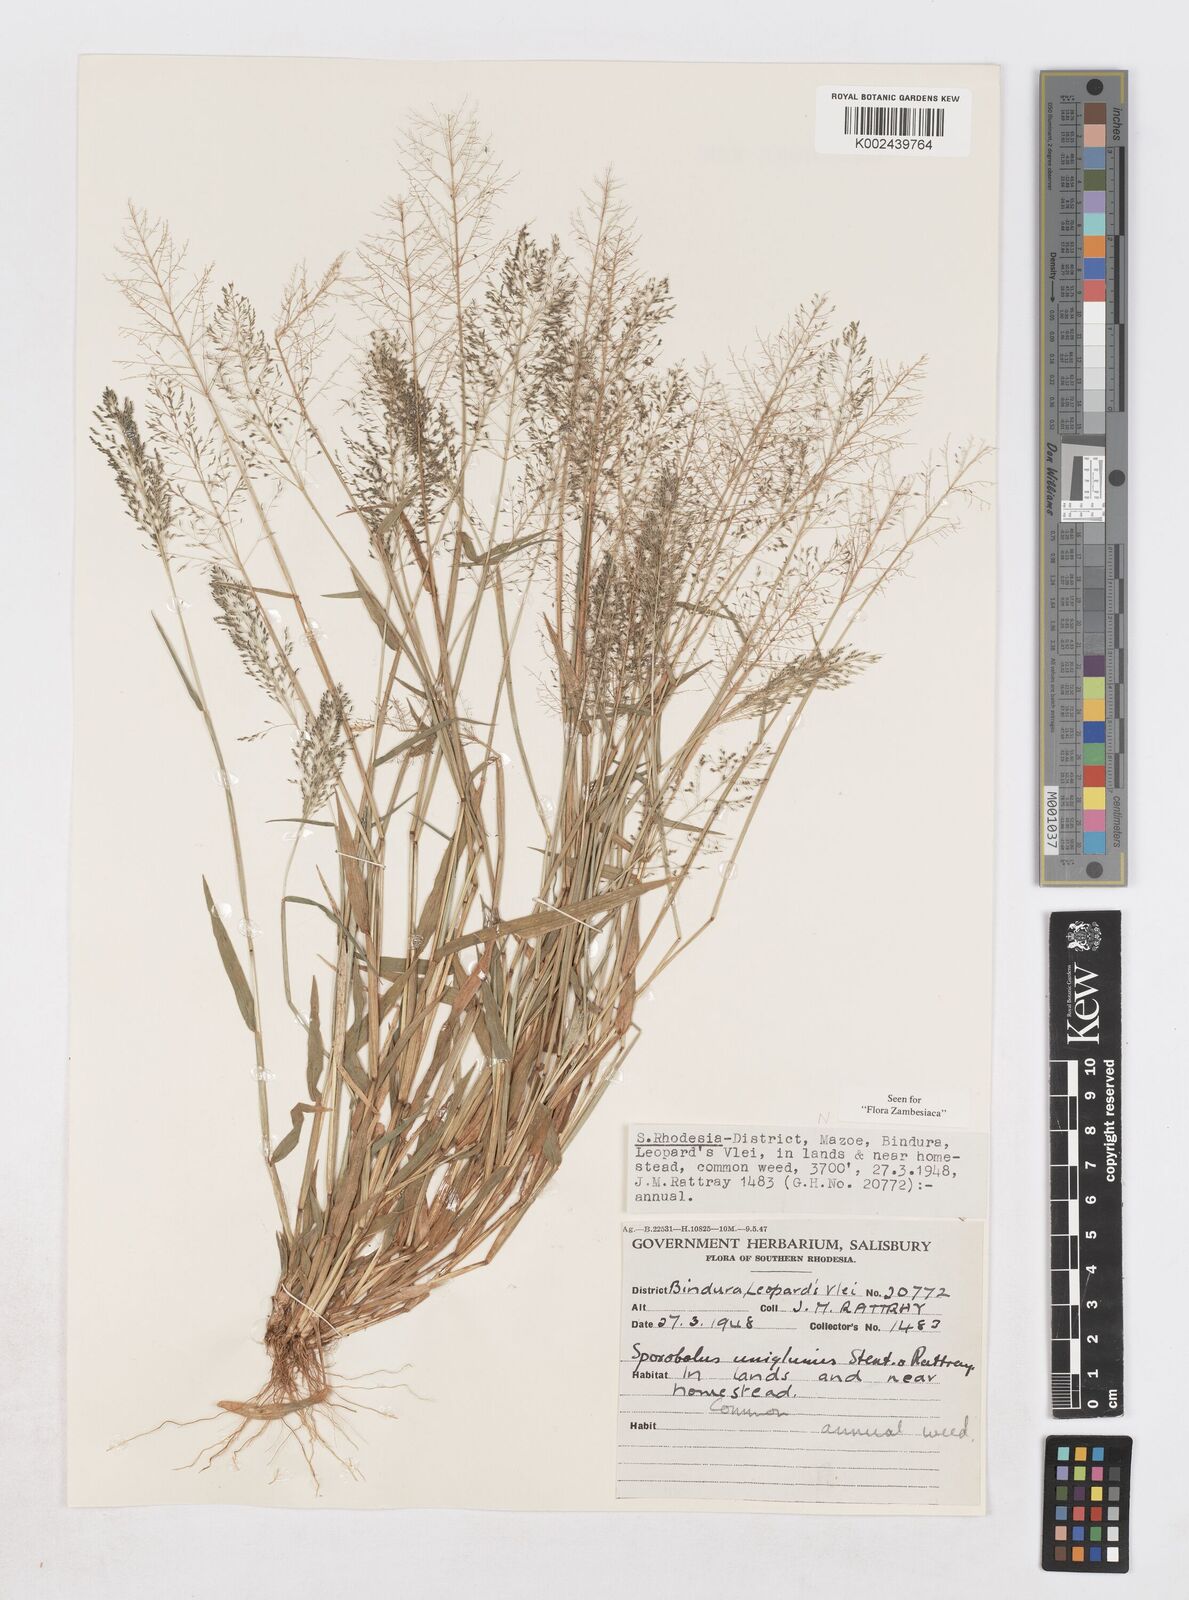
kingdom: Plantae
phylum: Tracheophyta
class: Liliopsida
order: Poales
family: Poaceae
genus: Sporobolus
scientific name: Sporobolus uniglumis
